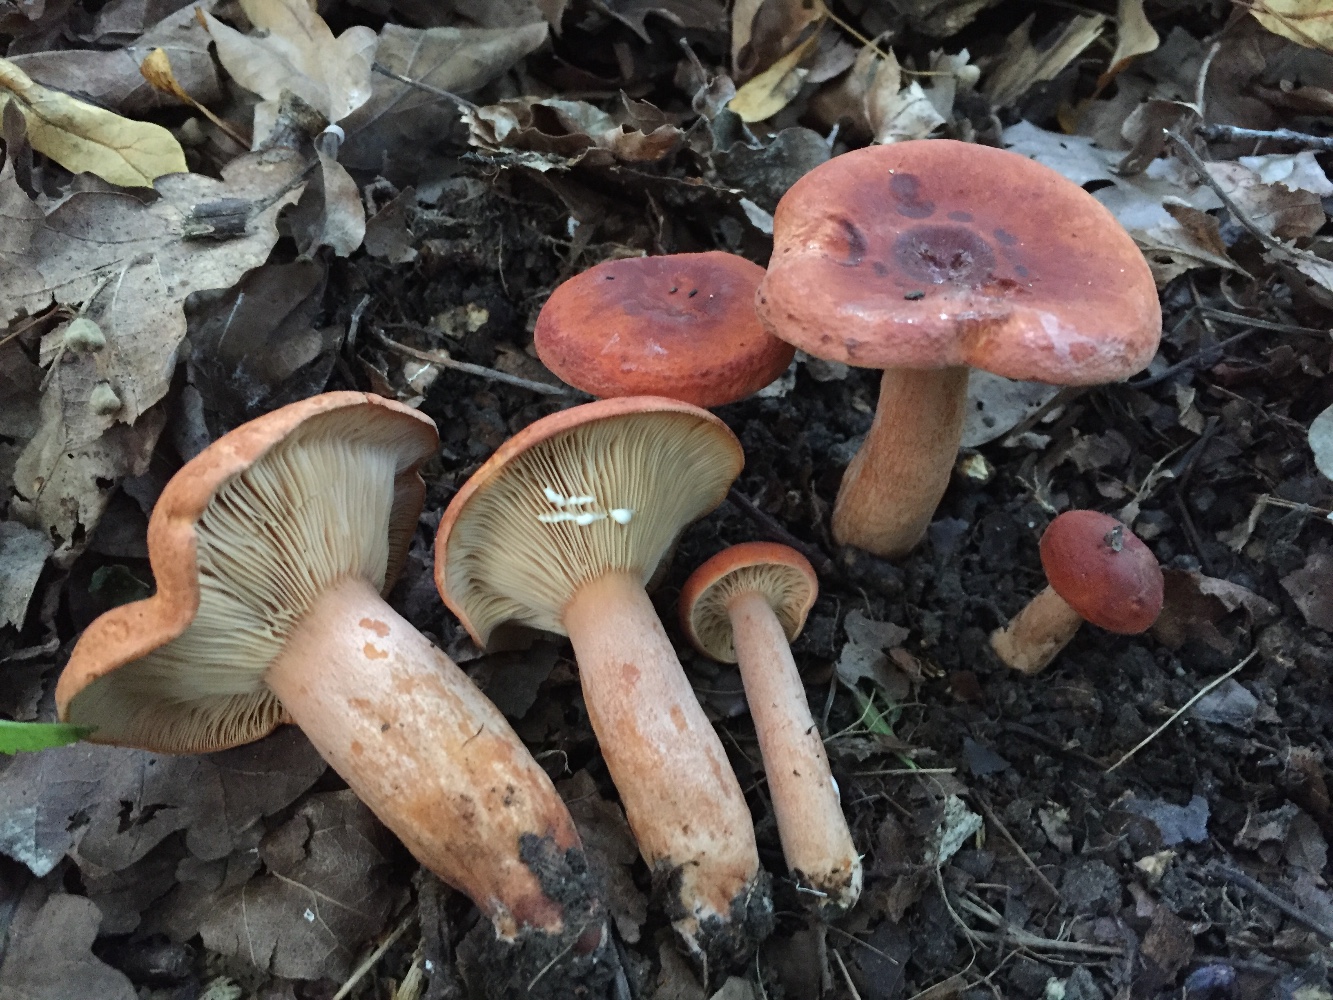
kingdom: Fungi
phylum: Basidiomycota
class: Agaricomycetes
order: Russulales
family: Russulaceae
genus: Lactarius
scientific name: Lactarius fulvissimus
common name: ræve-mælkehat
